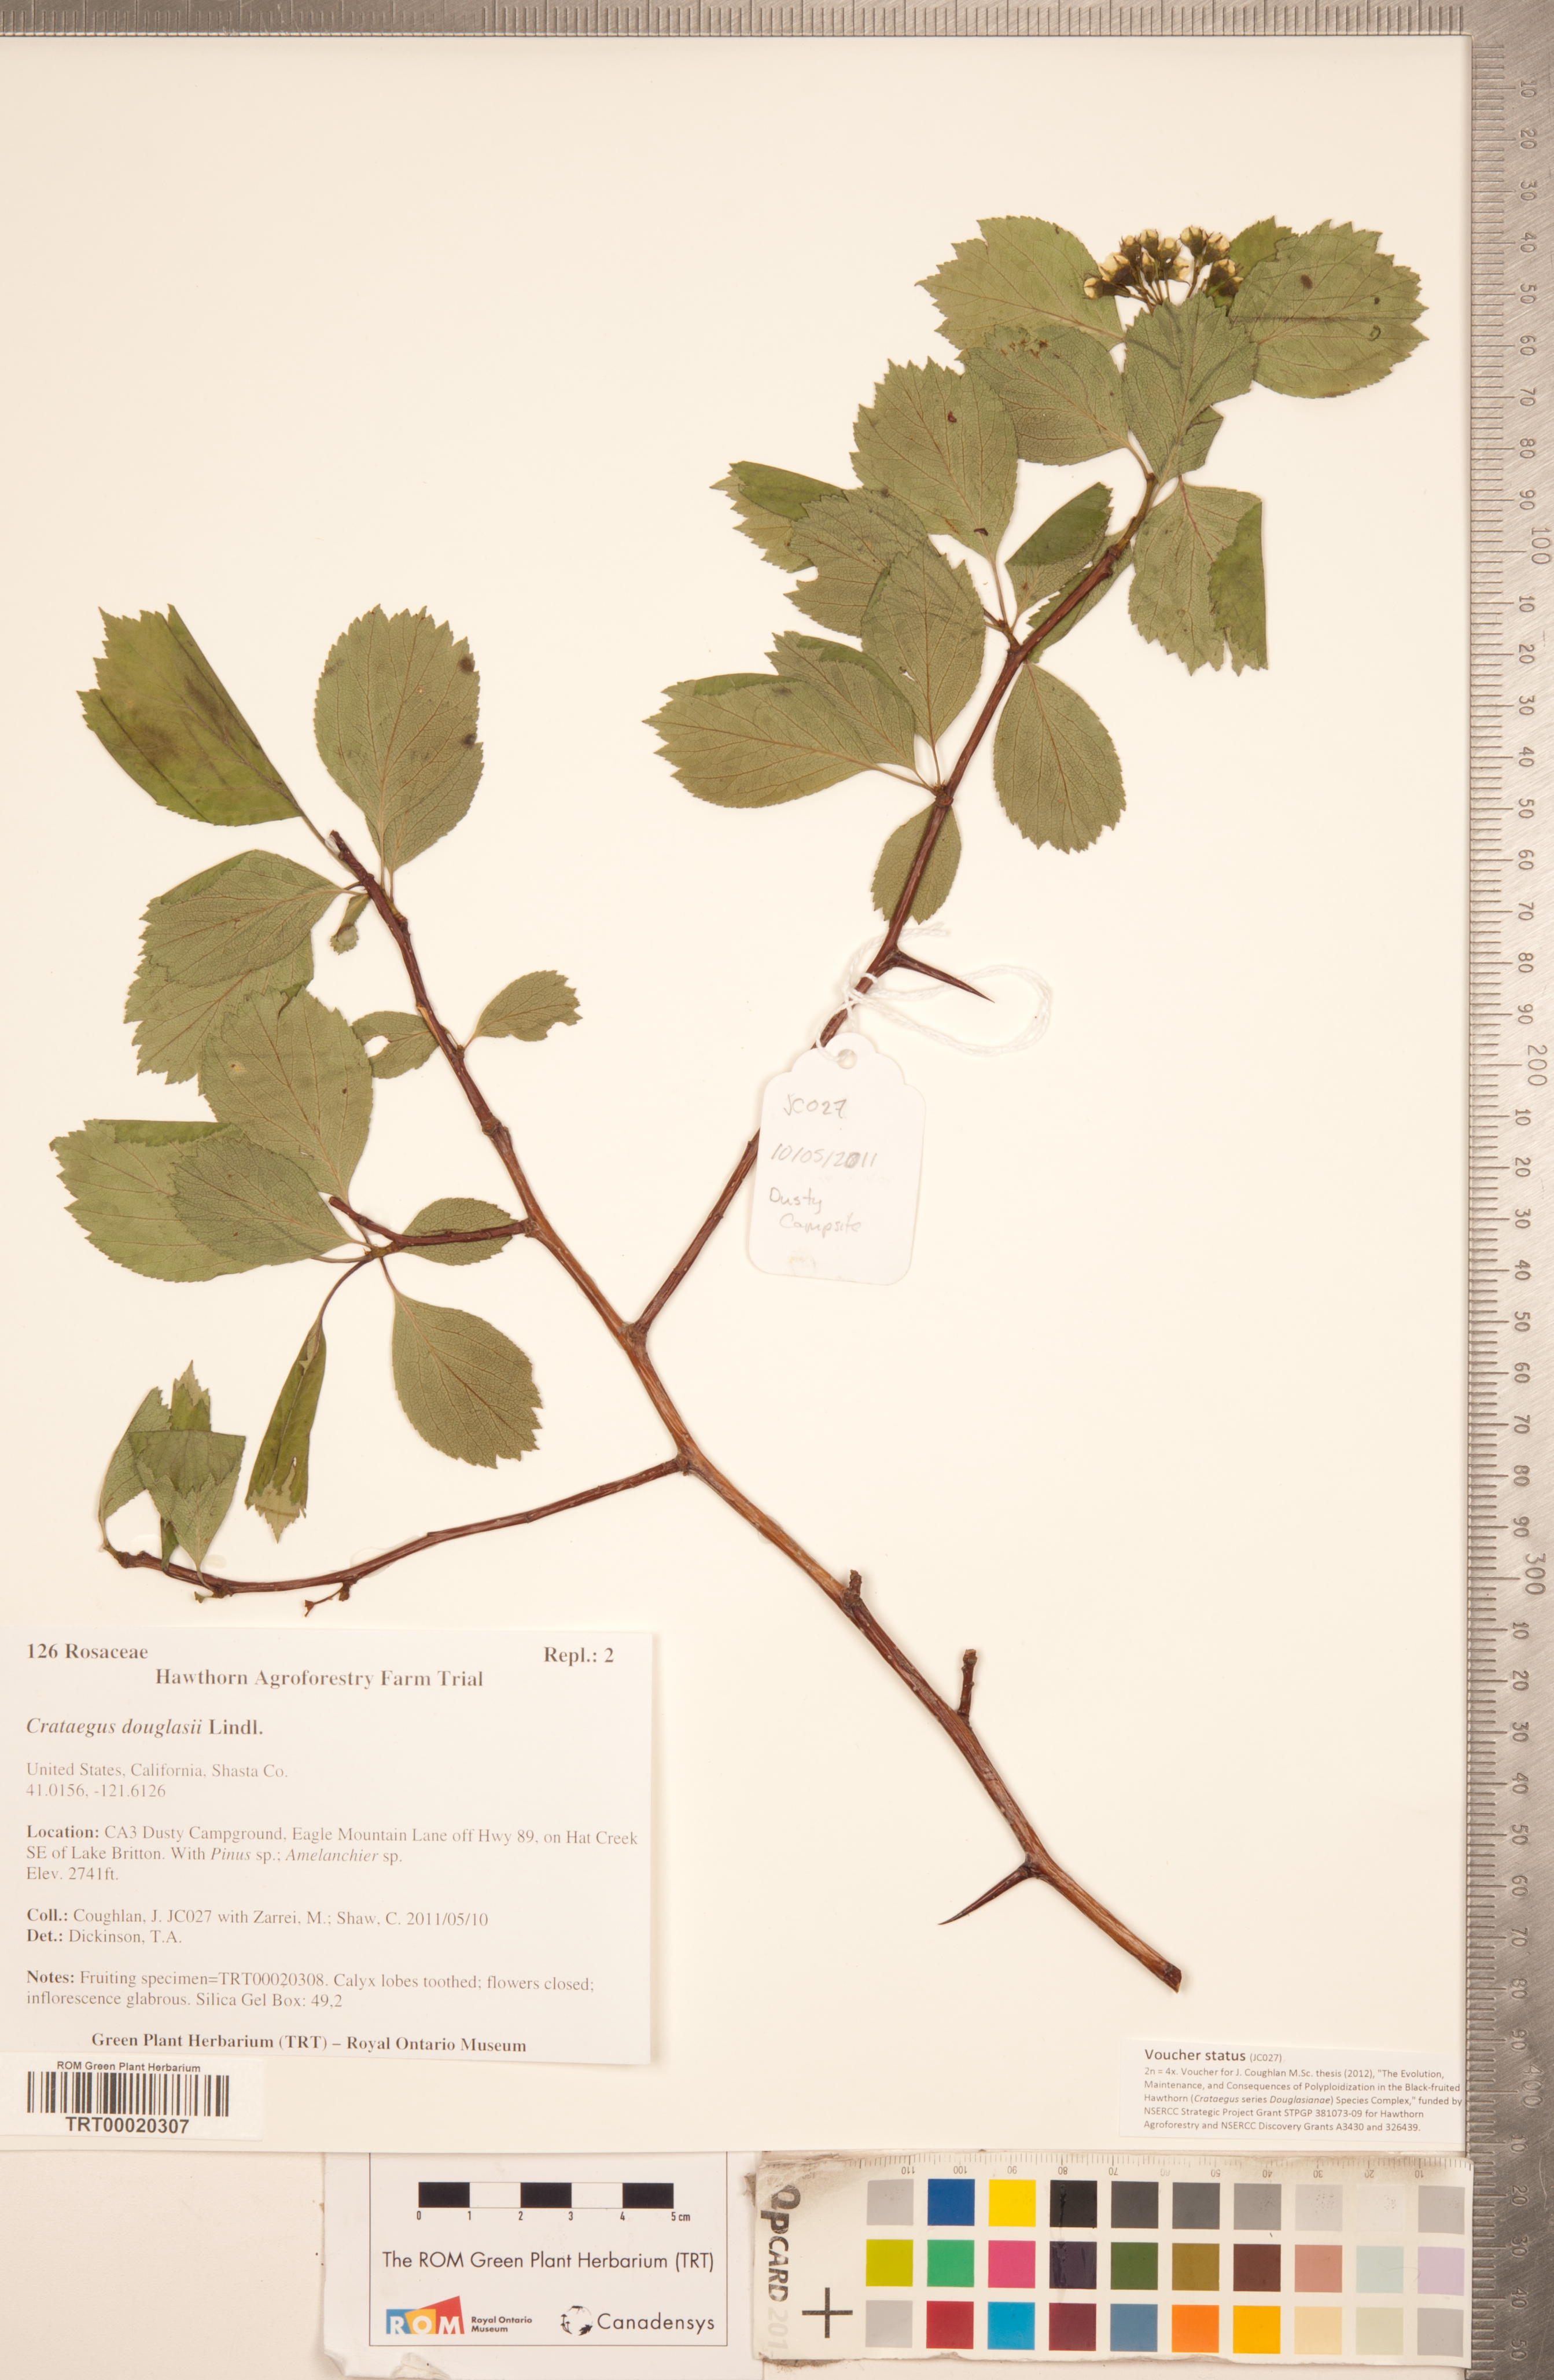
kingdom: Plantae
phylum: Tracheophyta
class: Magnoliopsida
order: Rosales
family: Rosaceae
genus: Crataegus
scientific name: Crataegus douglasii
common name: Black hawthorn
